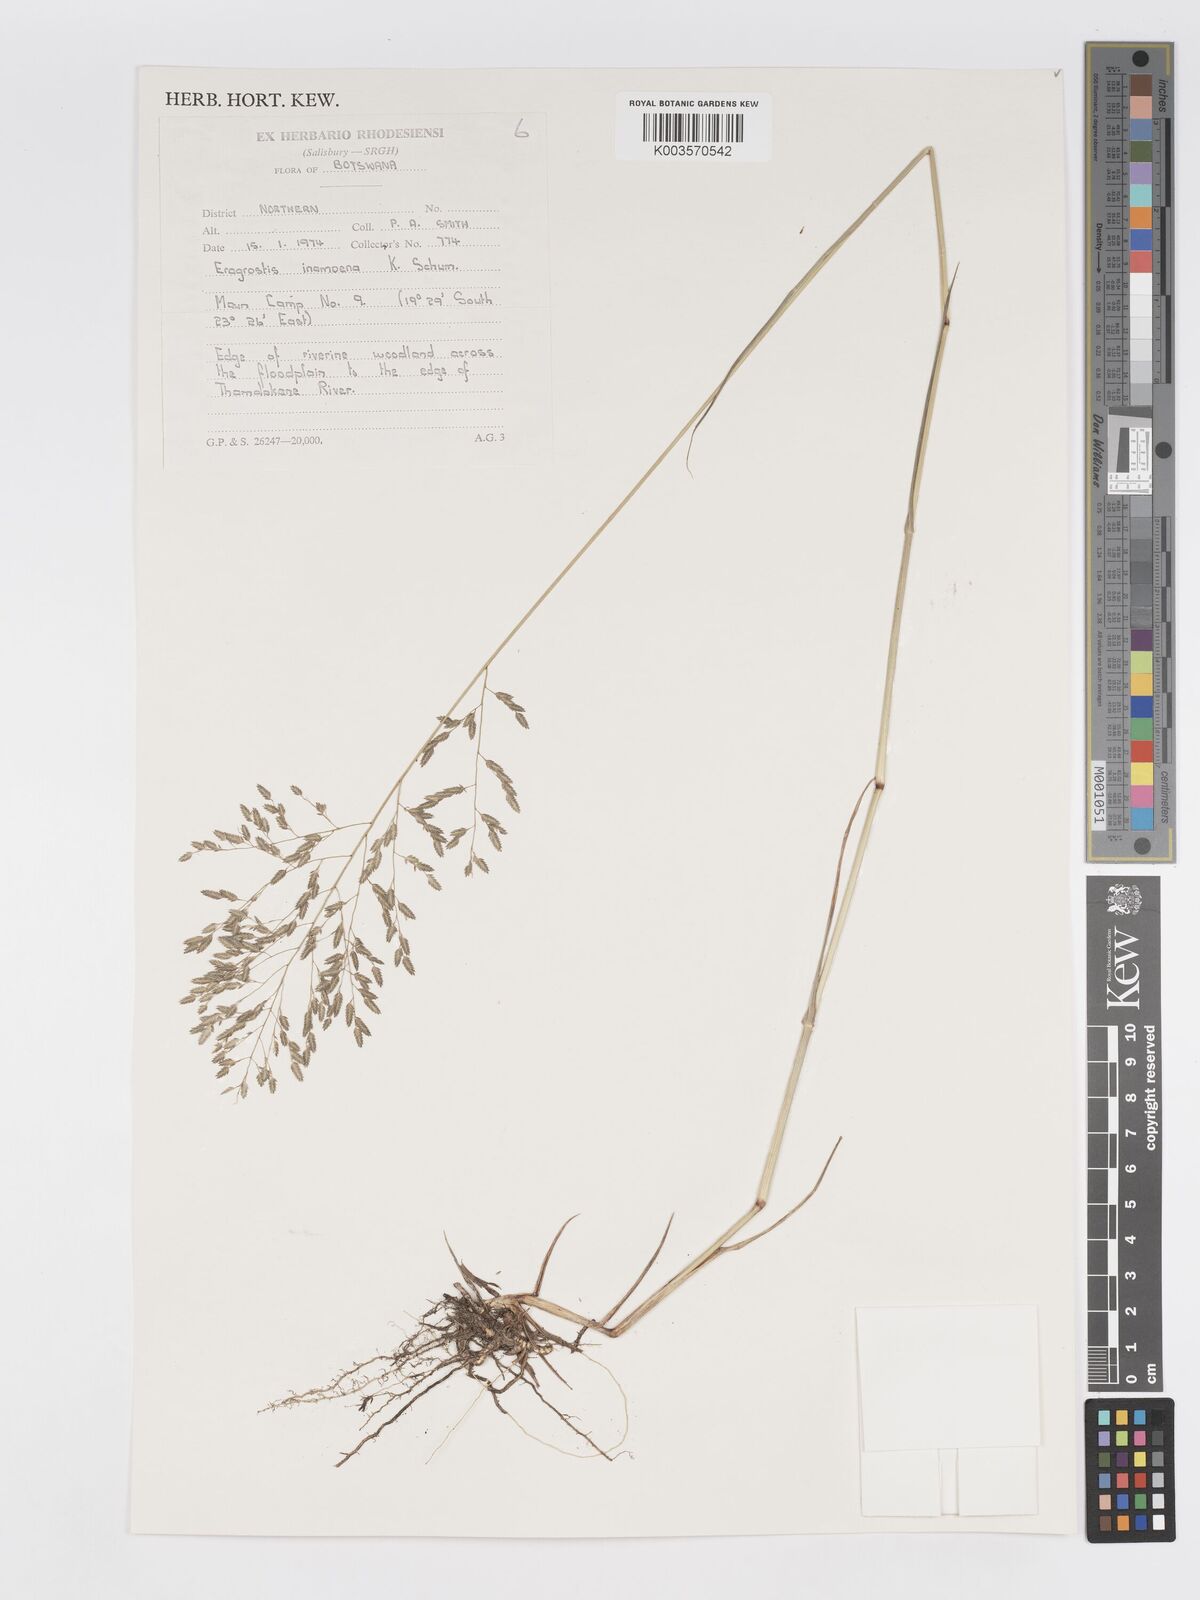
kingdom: Plantae
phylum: Tracheophyta
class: Liliopsida
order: Poales
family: Poaceae
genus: Eragrostis
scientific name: Eragrostis inamoena
